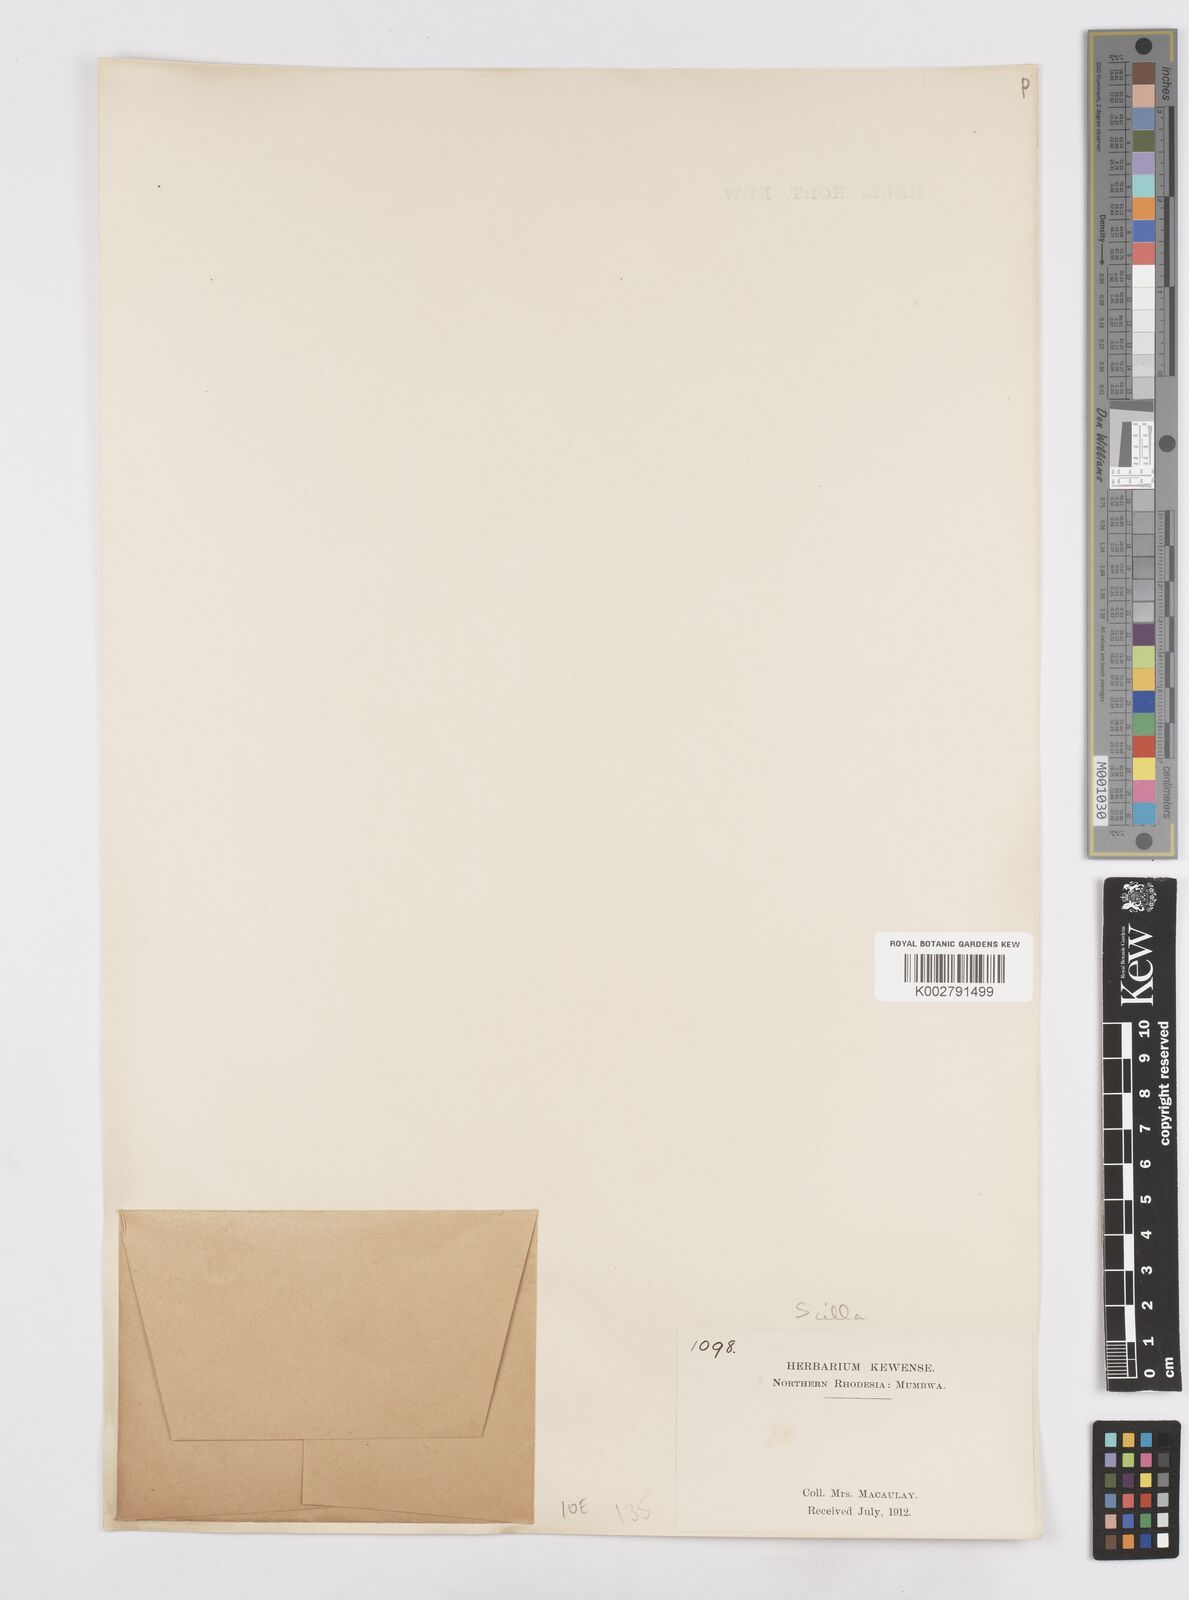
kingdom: Plantae
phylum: Tracheophyta
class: Liliopsida
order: Asparagales
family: Asparagaceae
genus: Scilla
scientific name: Scilla
